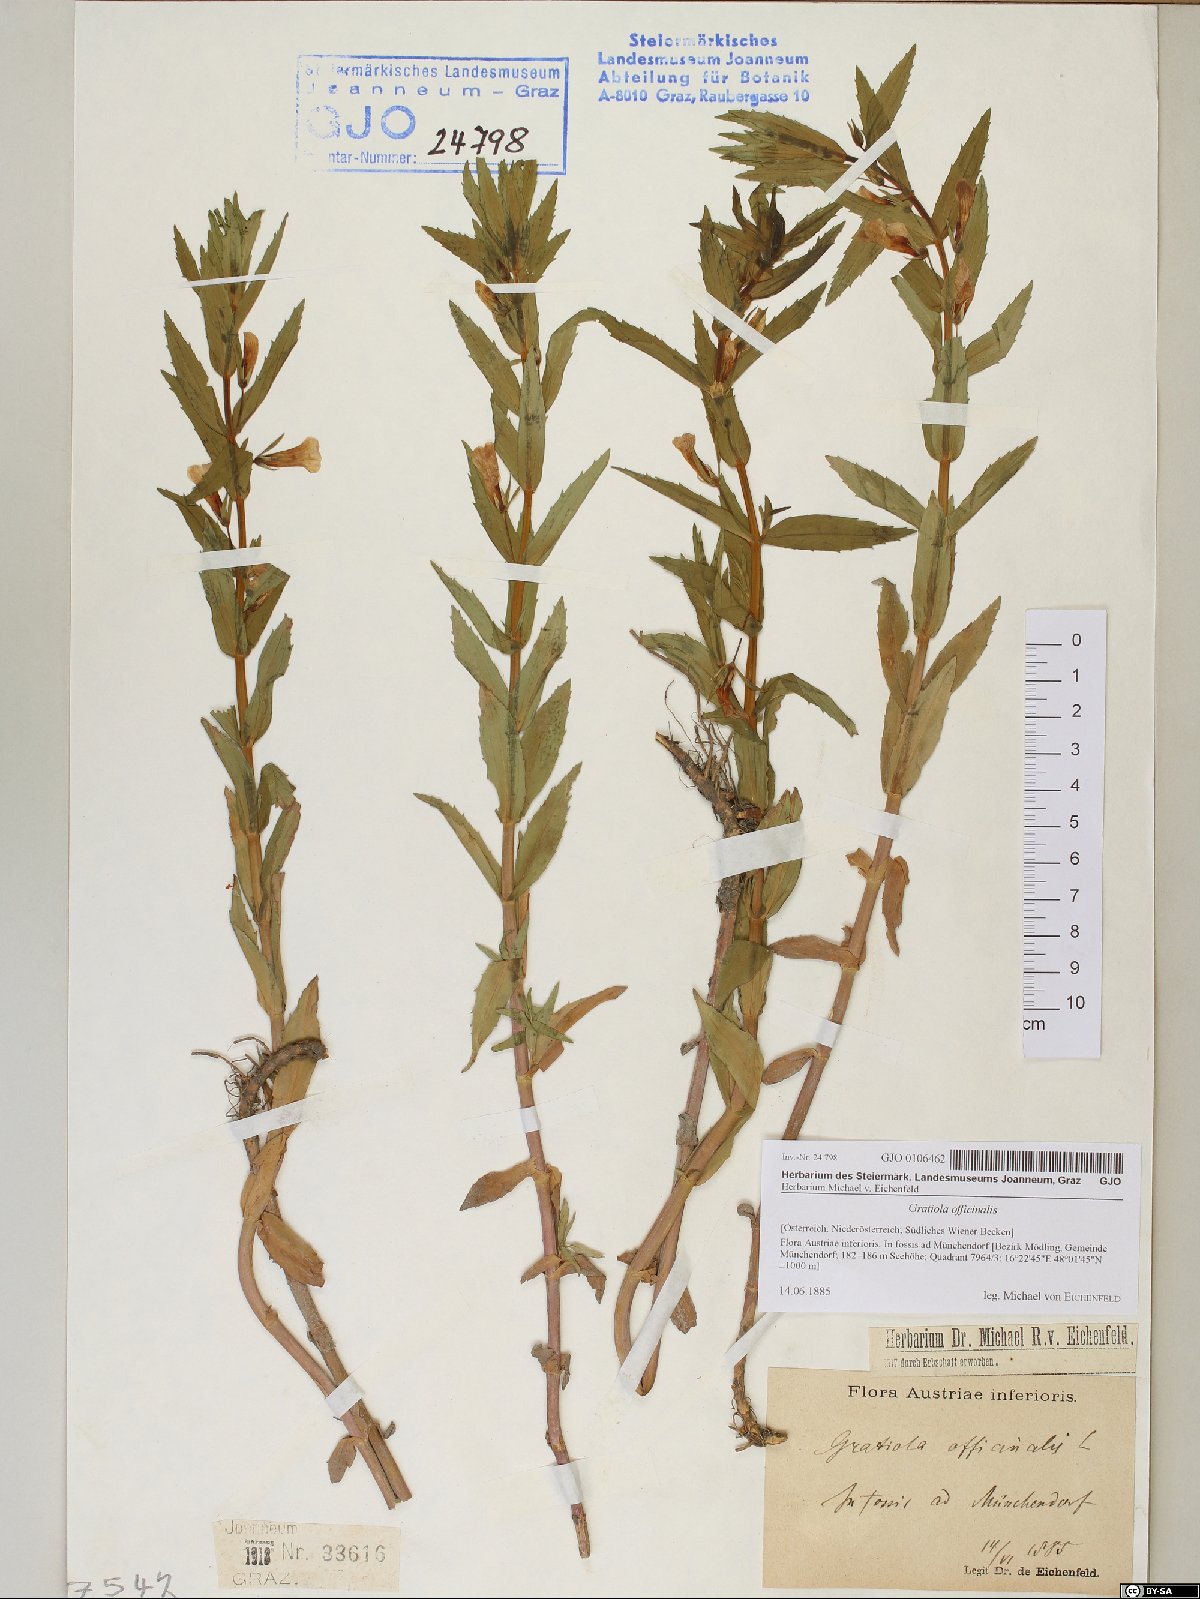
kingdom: Plantae
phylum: Tracheophyta
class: Magnoliopsida
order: Lamiales
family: Plantaginaceae
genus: Gratiola
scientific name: Gratiola officinalis
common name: Gratiola
